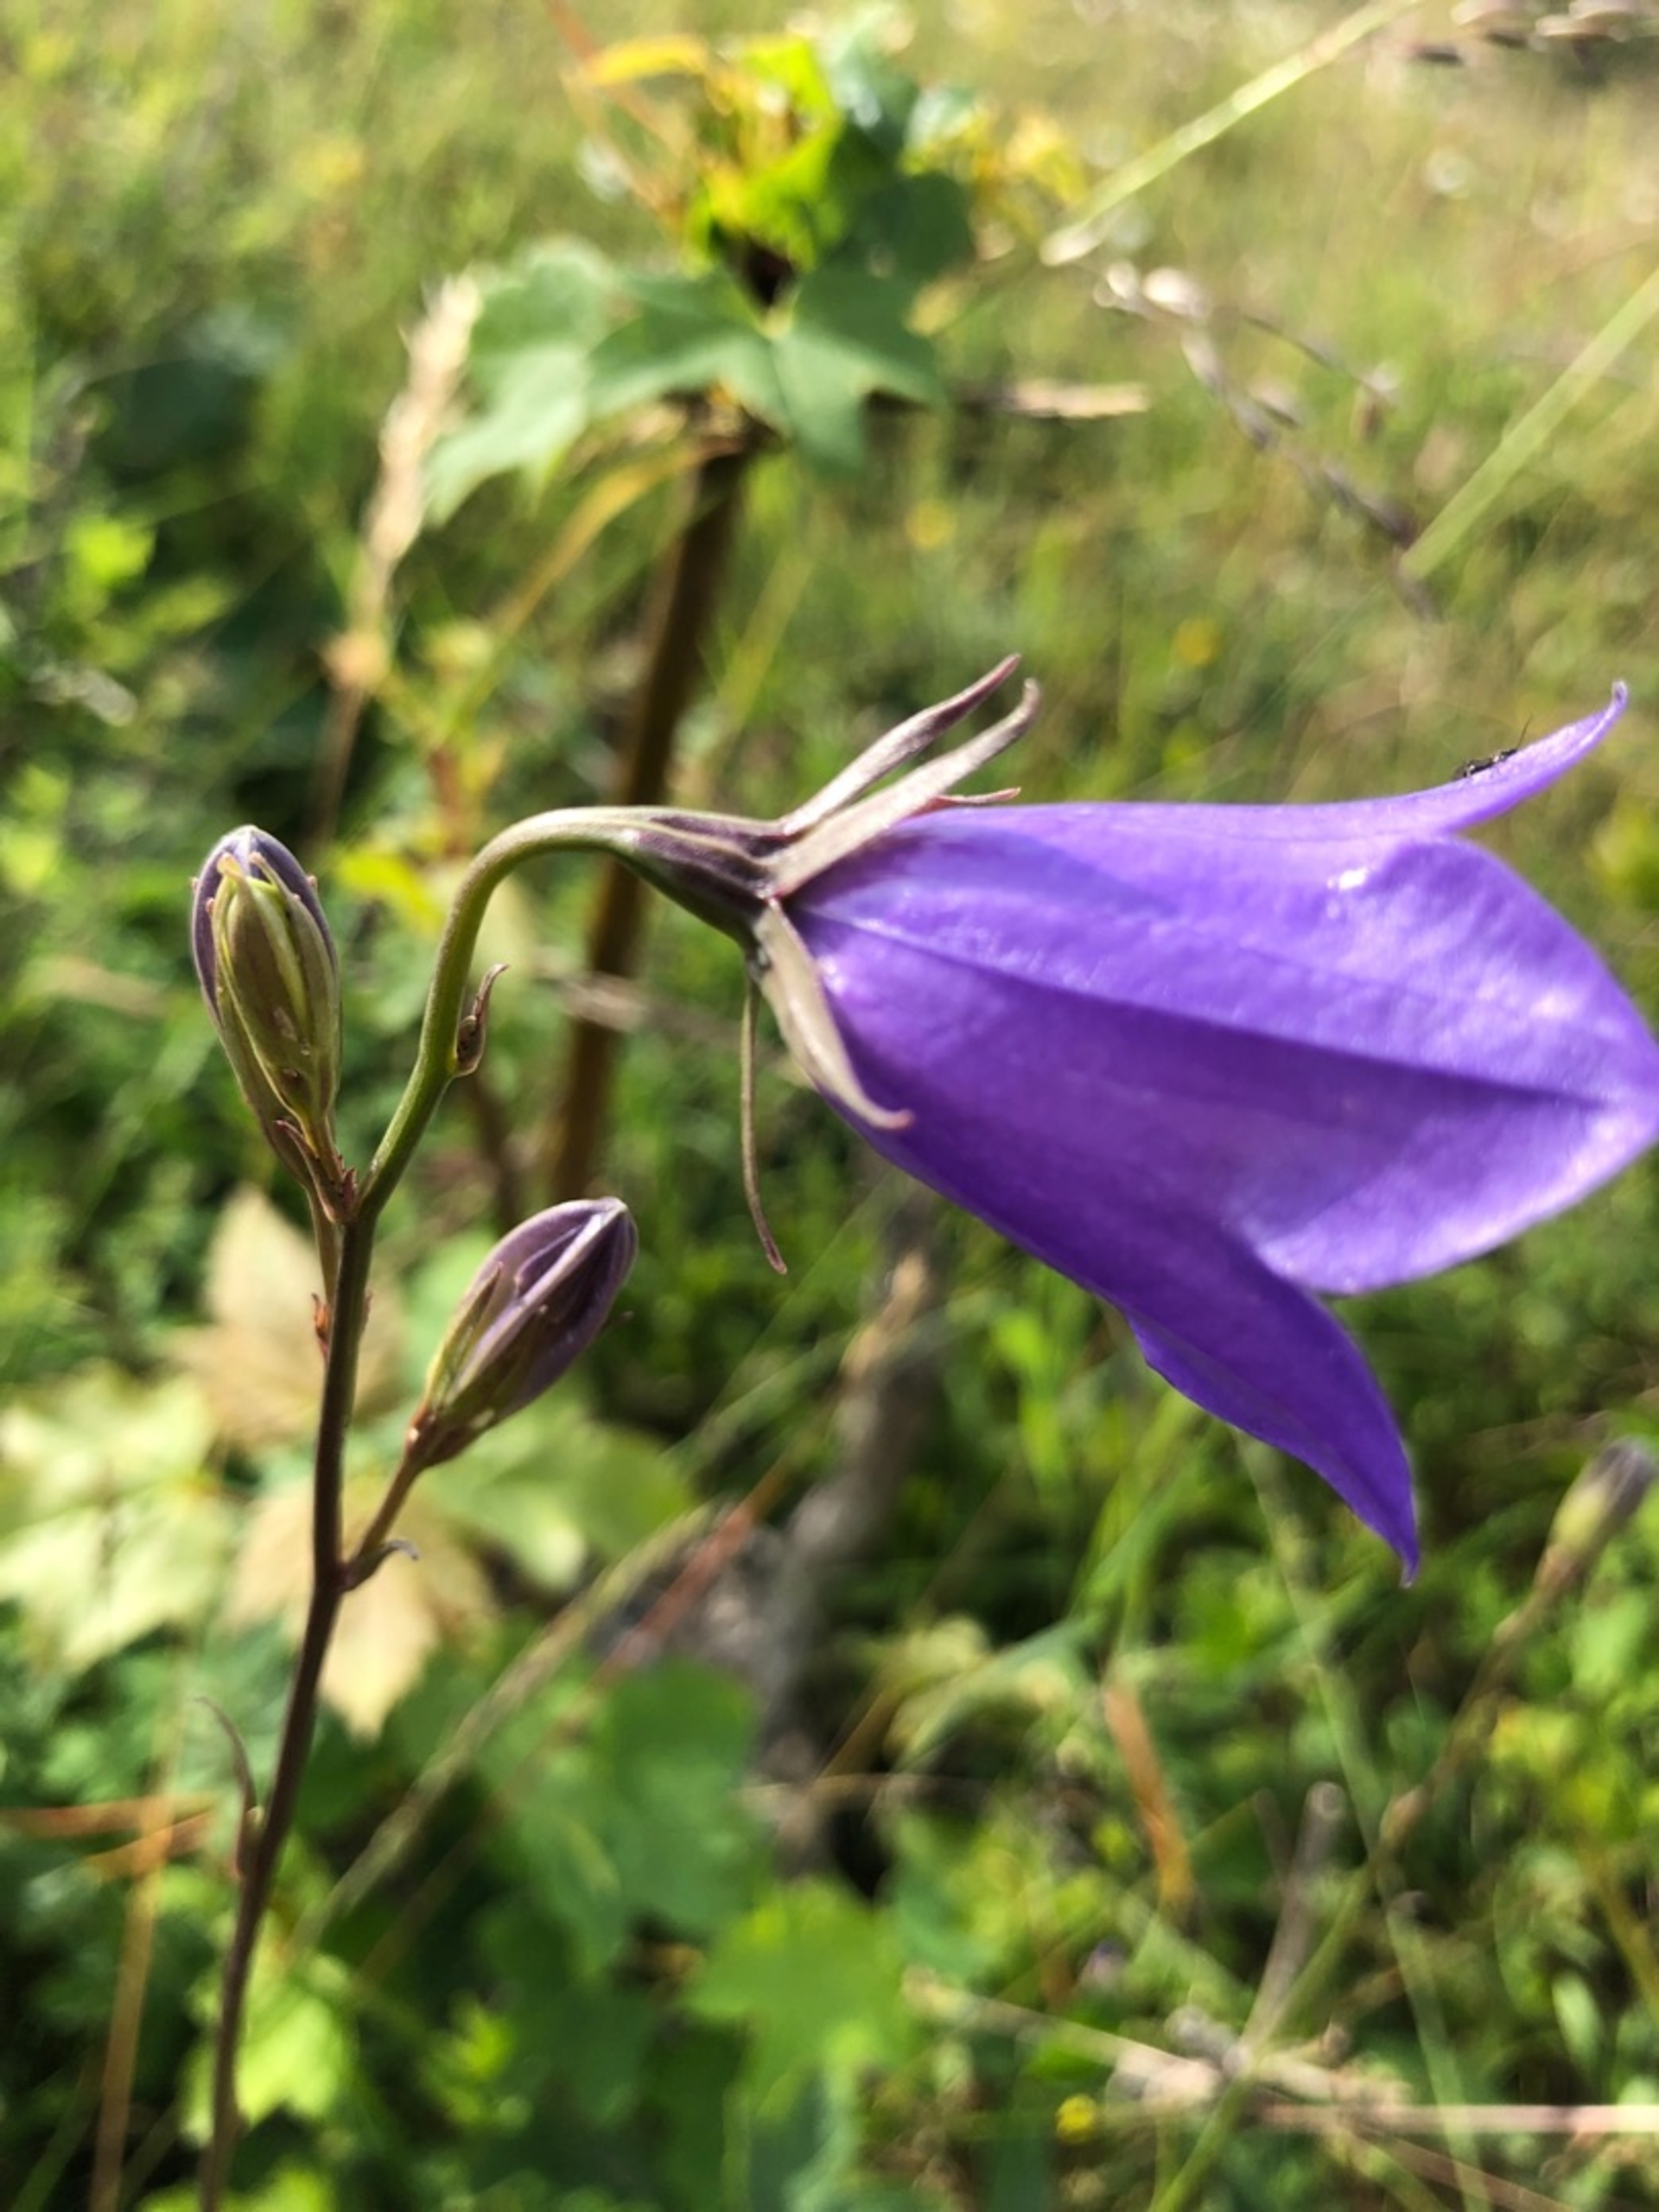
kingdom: Plantae
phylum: Tracheophyta
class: Magnoliopsida
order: Asterales
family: Campanulaceae
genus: Campanula
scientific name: Campanula persicifolia
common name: Smalbladet klokke
